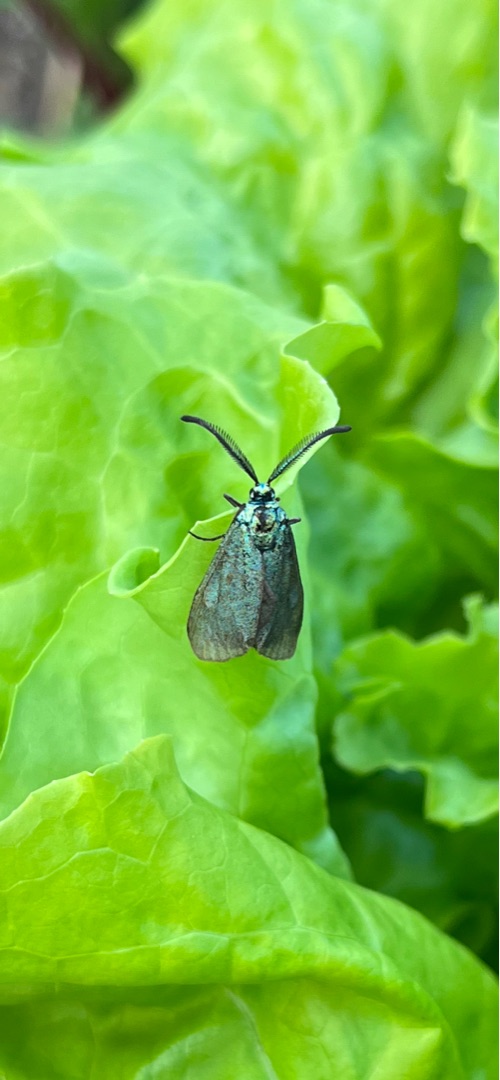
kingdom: Animalia
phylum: Arthropoda
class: Insecta
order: Lepidoptera
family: Zygaenidae
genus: Adscita
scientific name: Adscita statices
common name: Metalvinge
